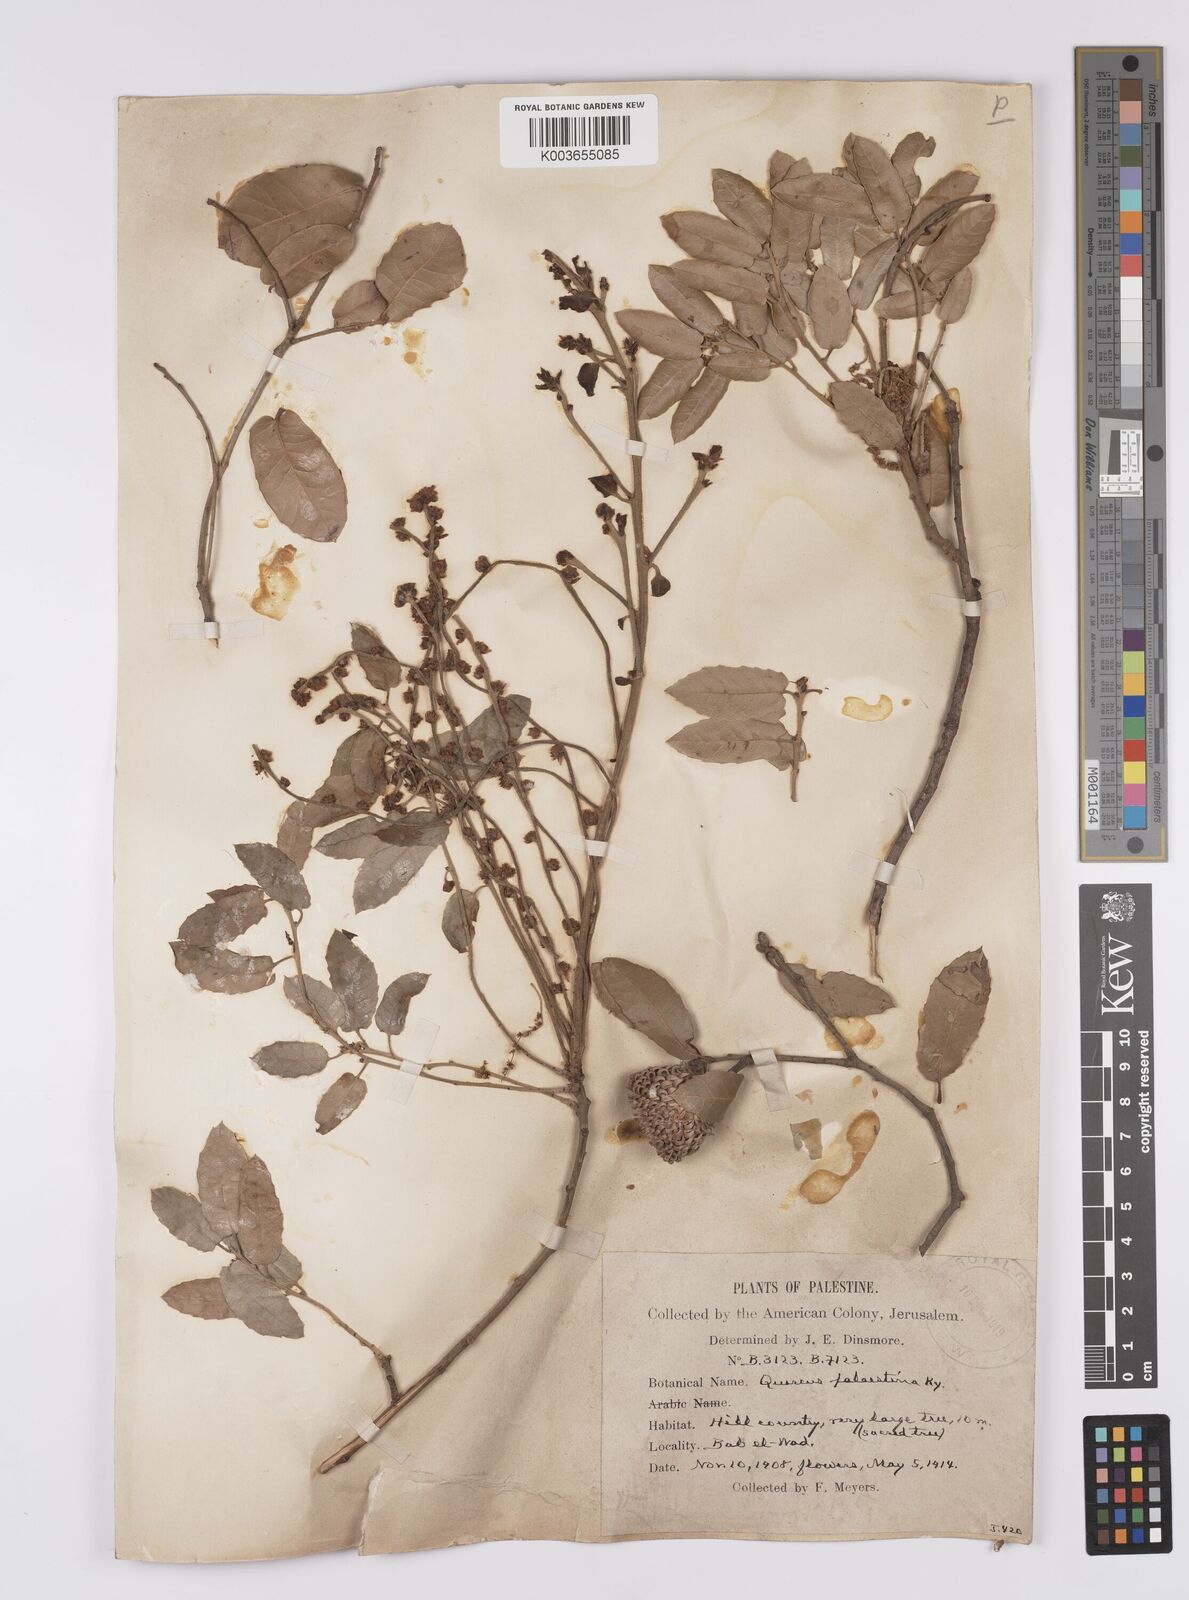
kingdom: Plantae
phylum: Tracheophyta
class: Magnoliopsida
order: Fagales
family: Fagaceae
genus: Quercus
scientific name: Quercus coccifera
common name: Kermes oak
